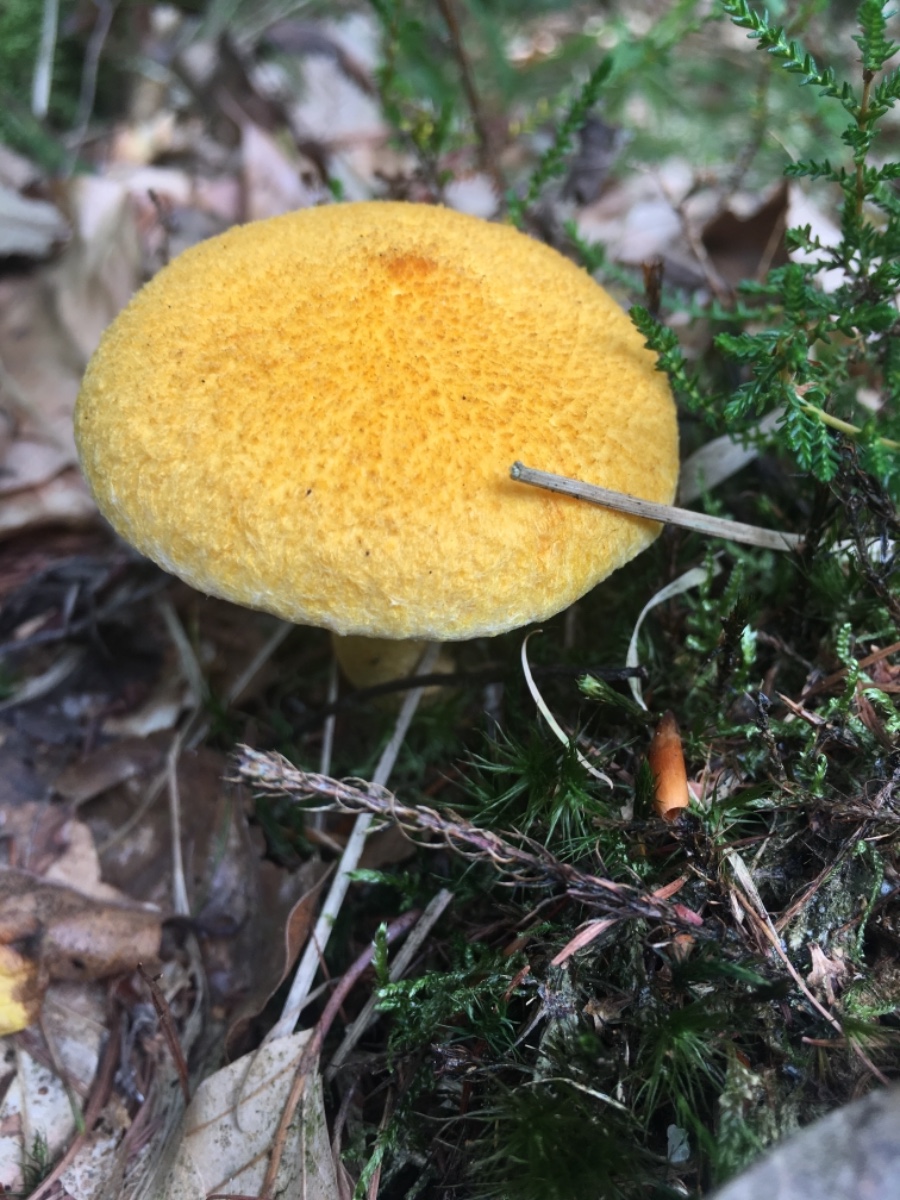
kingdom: Fungi
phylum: Basidiomycota
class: Agaricomycetes
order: Boletales
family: Suillaceae
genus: Suillus
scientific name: Suillus cavipes
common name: hulstokket slimrørhat, gul form
